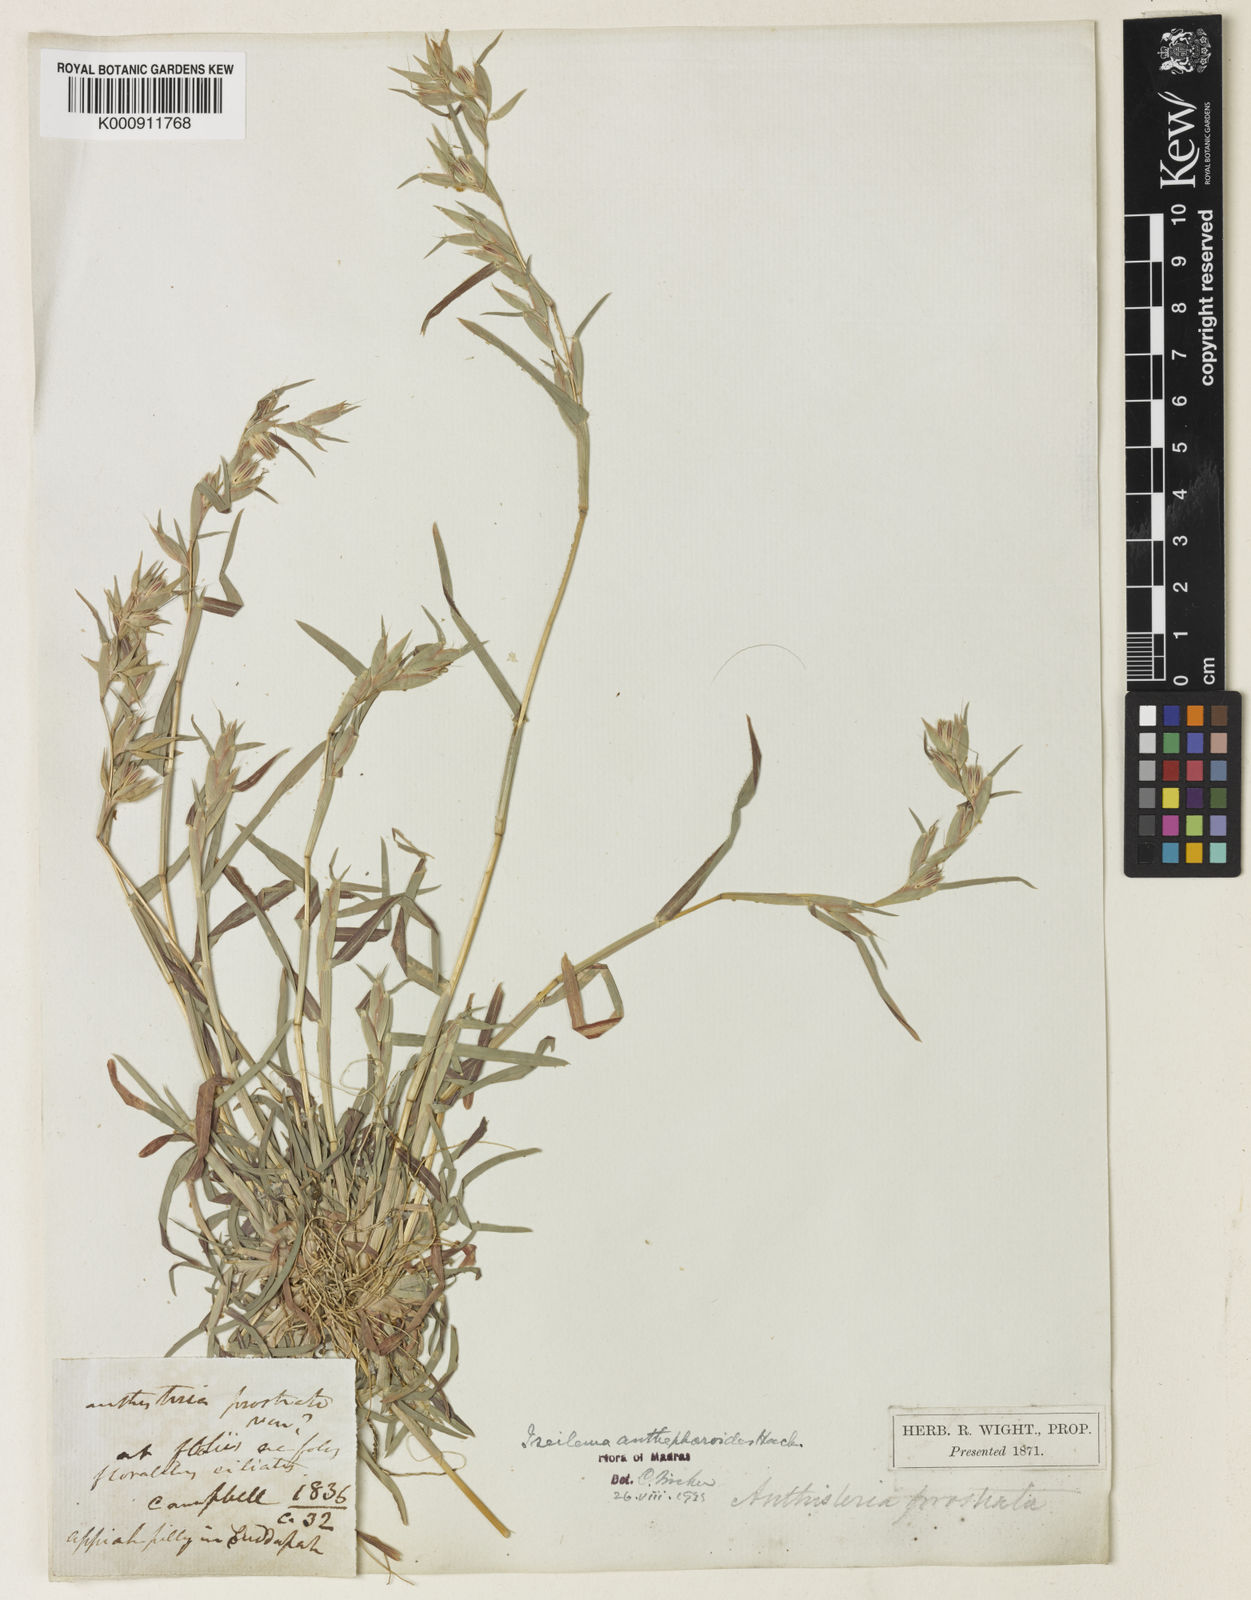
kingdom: Plantae
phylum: Tracheophyta
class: Liliopsida
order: Poales
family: Poaceae
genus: Iseilema
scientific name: Iseilema anthephoroides
